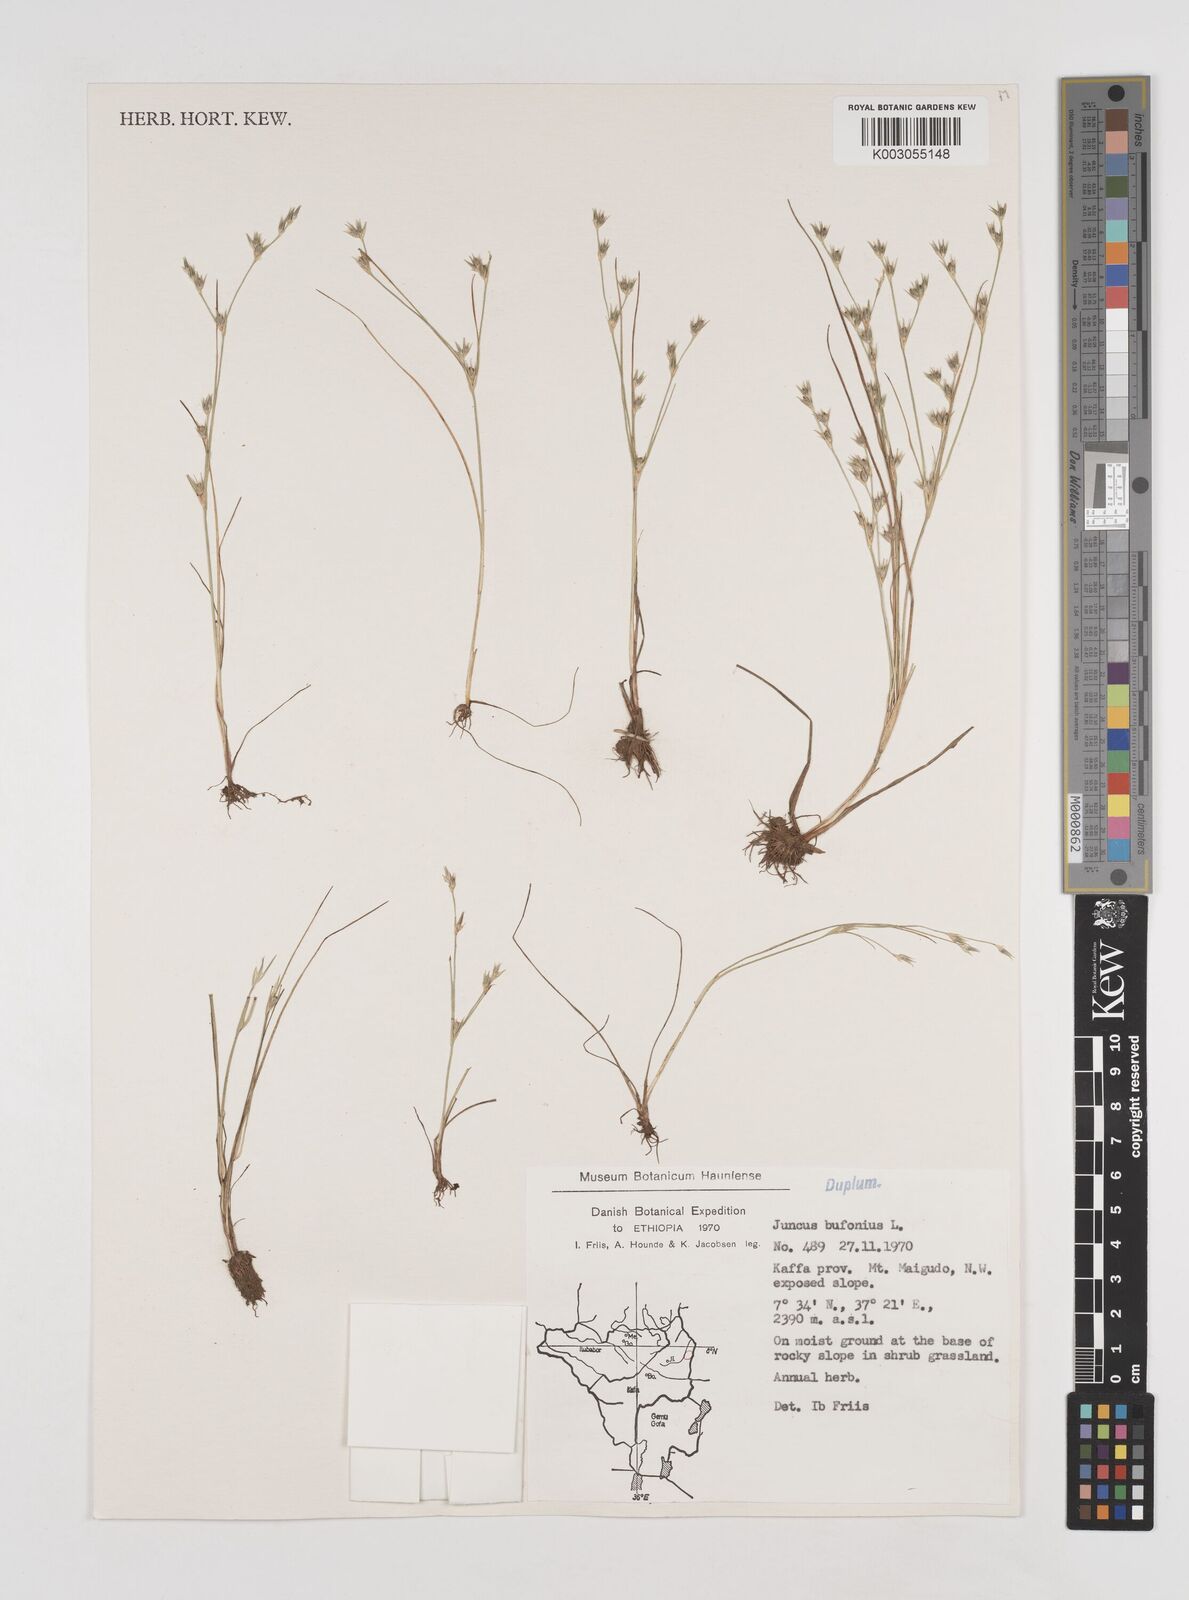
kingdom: Plantae
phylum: Tracheophyta
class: Liliopsida
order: Poales
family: Juncaceae
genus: Juncus
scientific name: Juncus bufonius
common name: Toad rush
